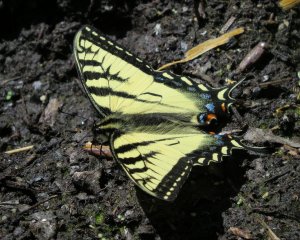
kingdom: Animalia
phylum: Arthropoda
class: Insecta
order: Lepidoptera
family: Papilionidae
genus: Pterourus
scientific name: Pterourus canadensis
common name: Canadian Tiger Swallowtail
